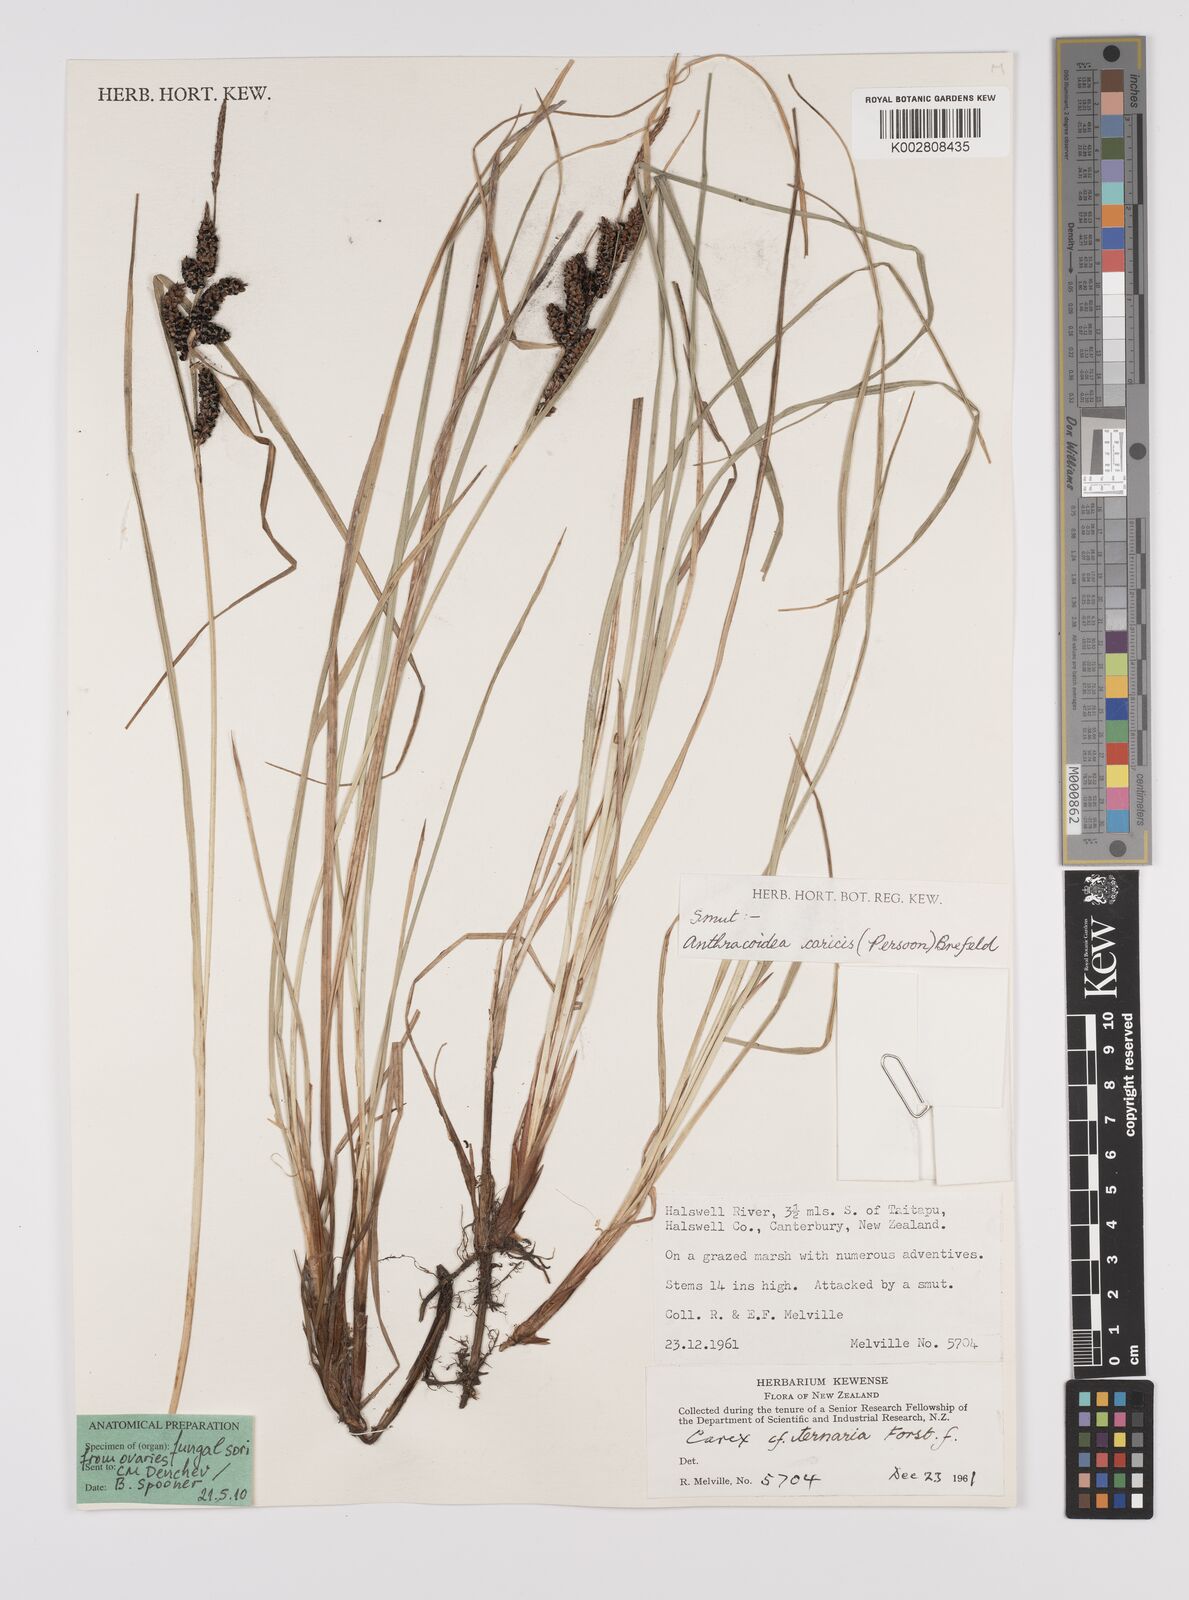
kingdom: Plantae
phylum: Tracheophyta
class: Liliopsida
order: Poales
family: Cyperaceae
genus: Carex
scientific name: Carex
